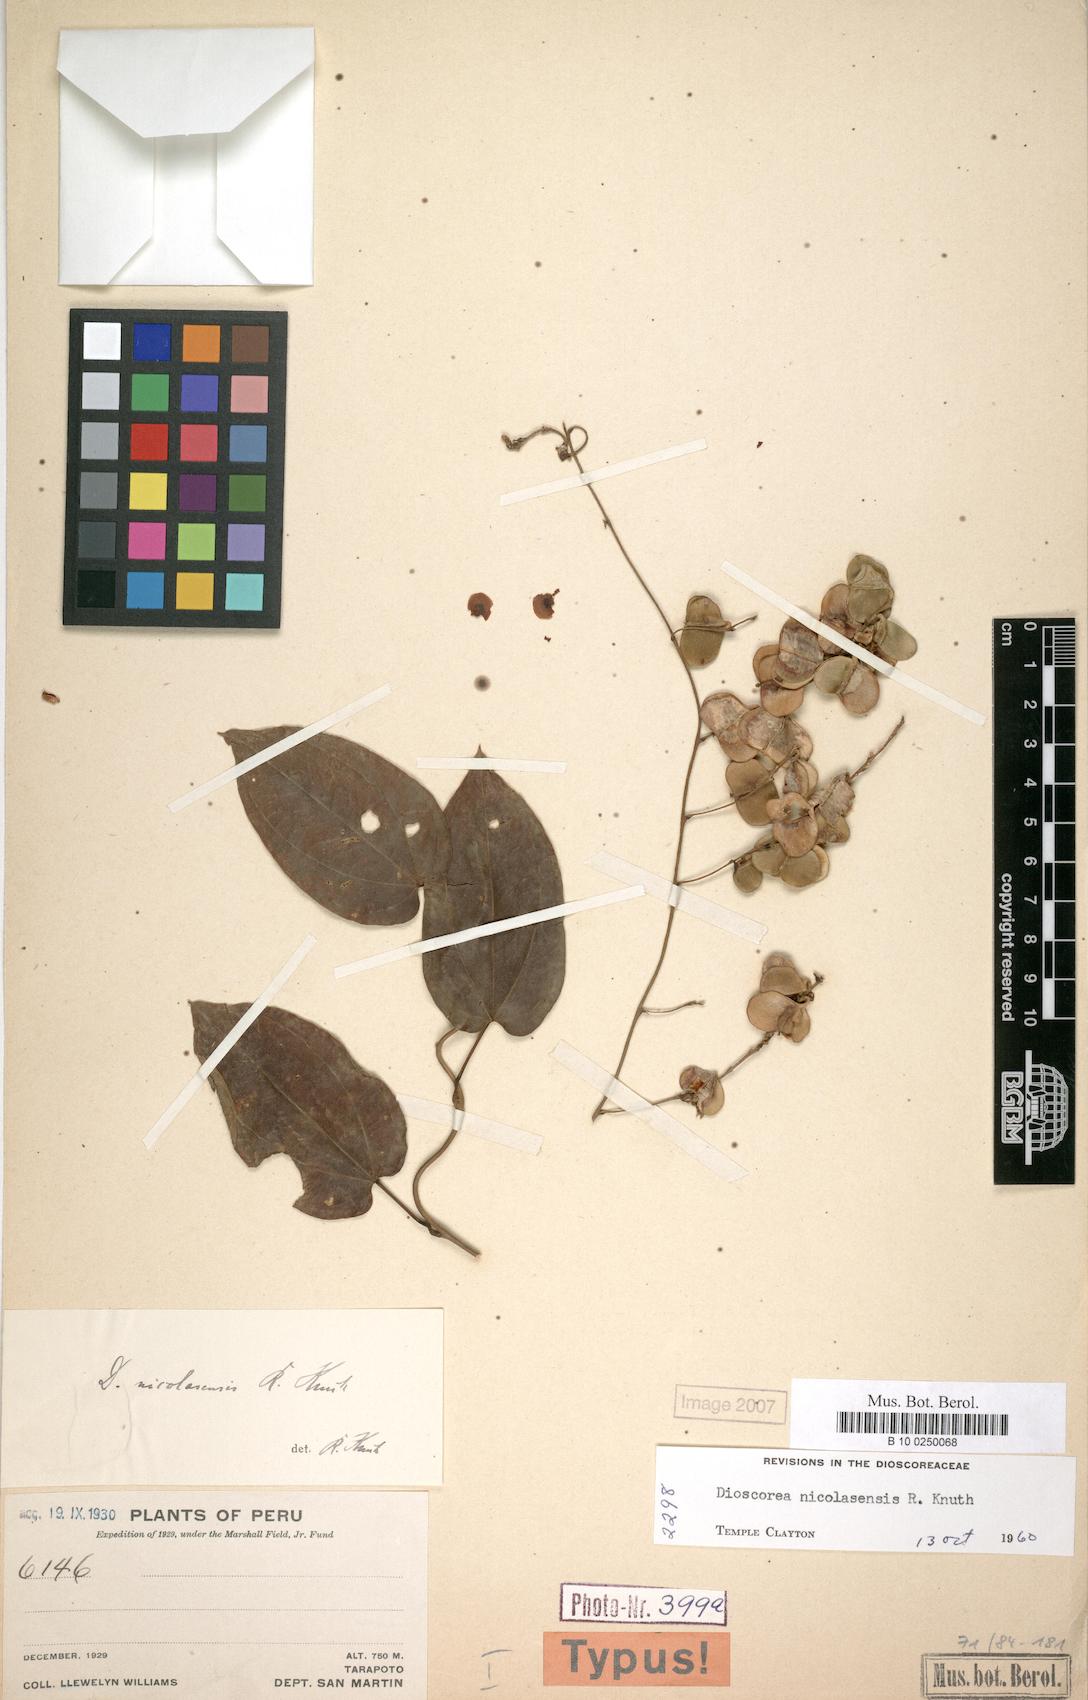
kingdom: Plantae
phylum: Tracheophyta
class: Liliopsida
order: Dioscoreales
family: Dioscoreaceae
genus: Dioscorea
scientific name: Dioscorea nicolasensis
